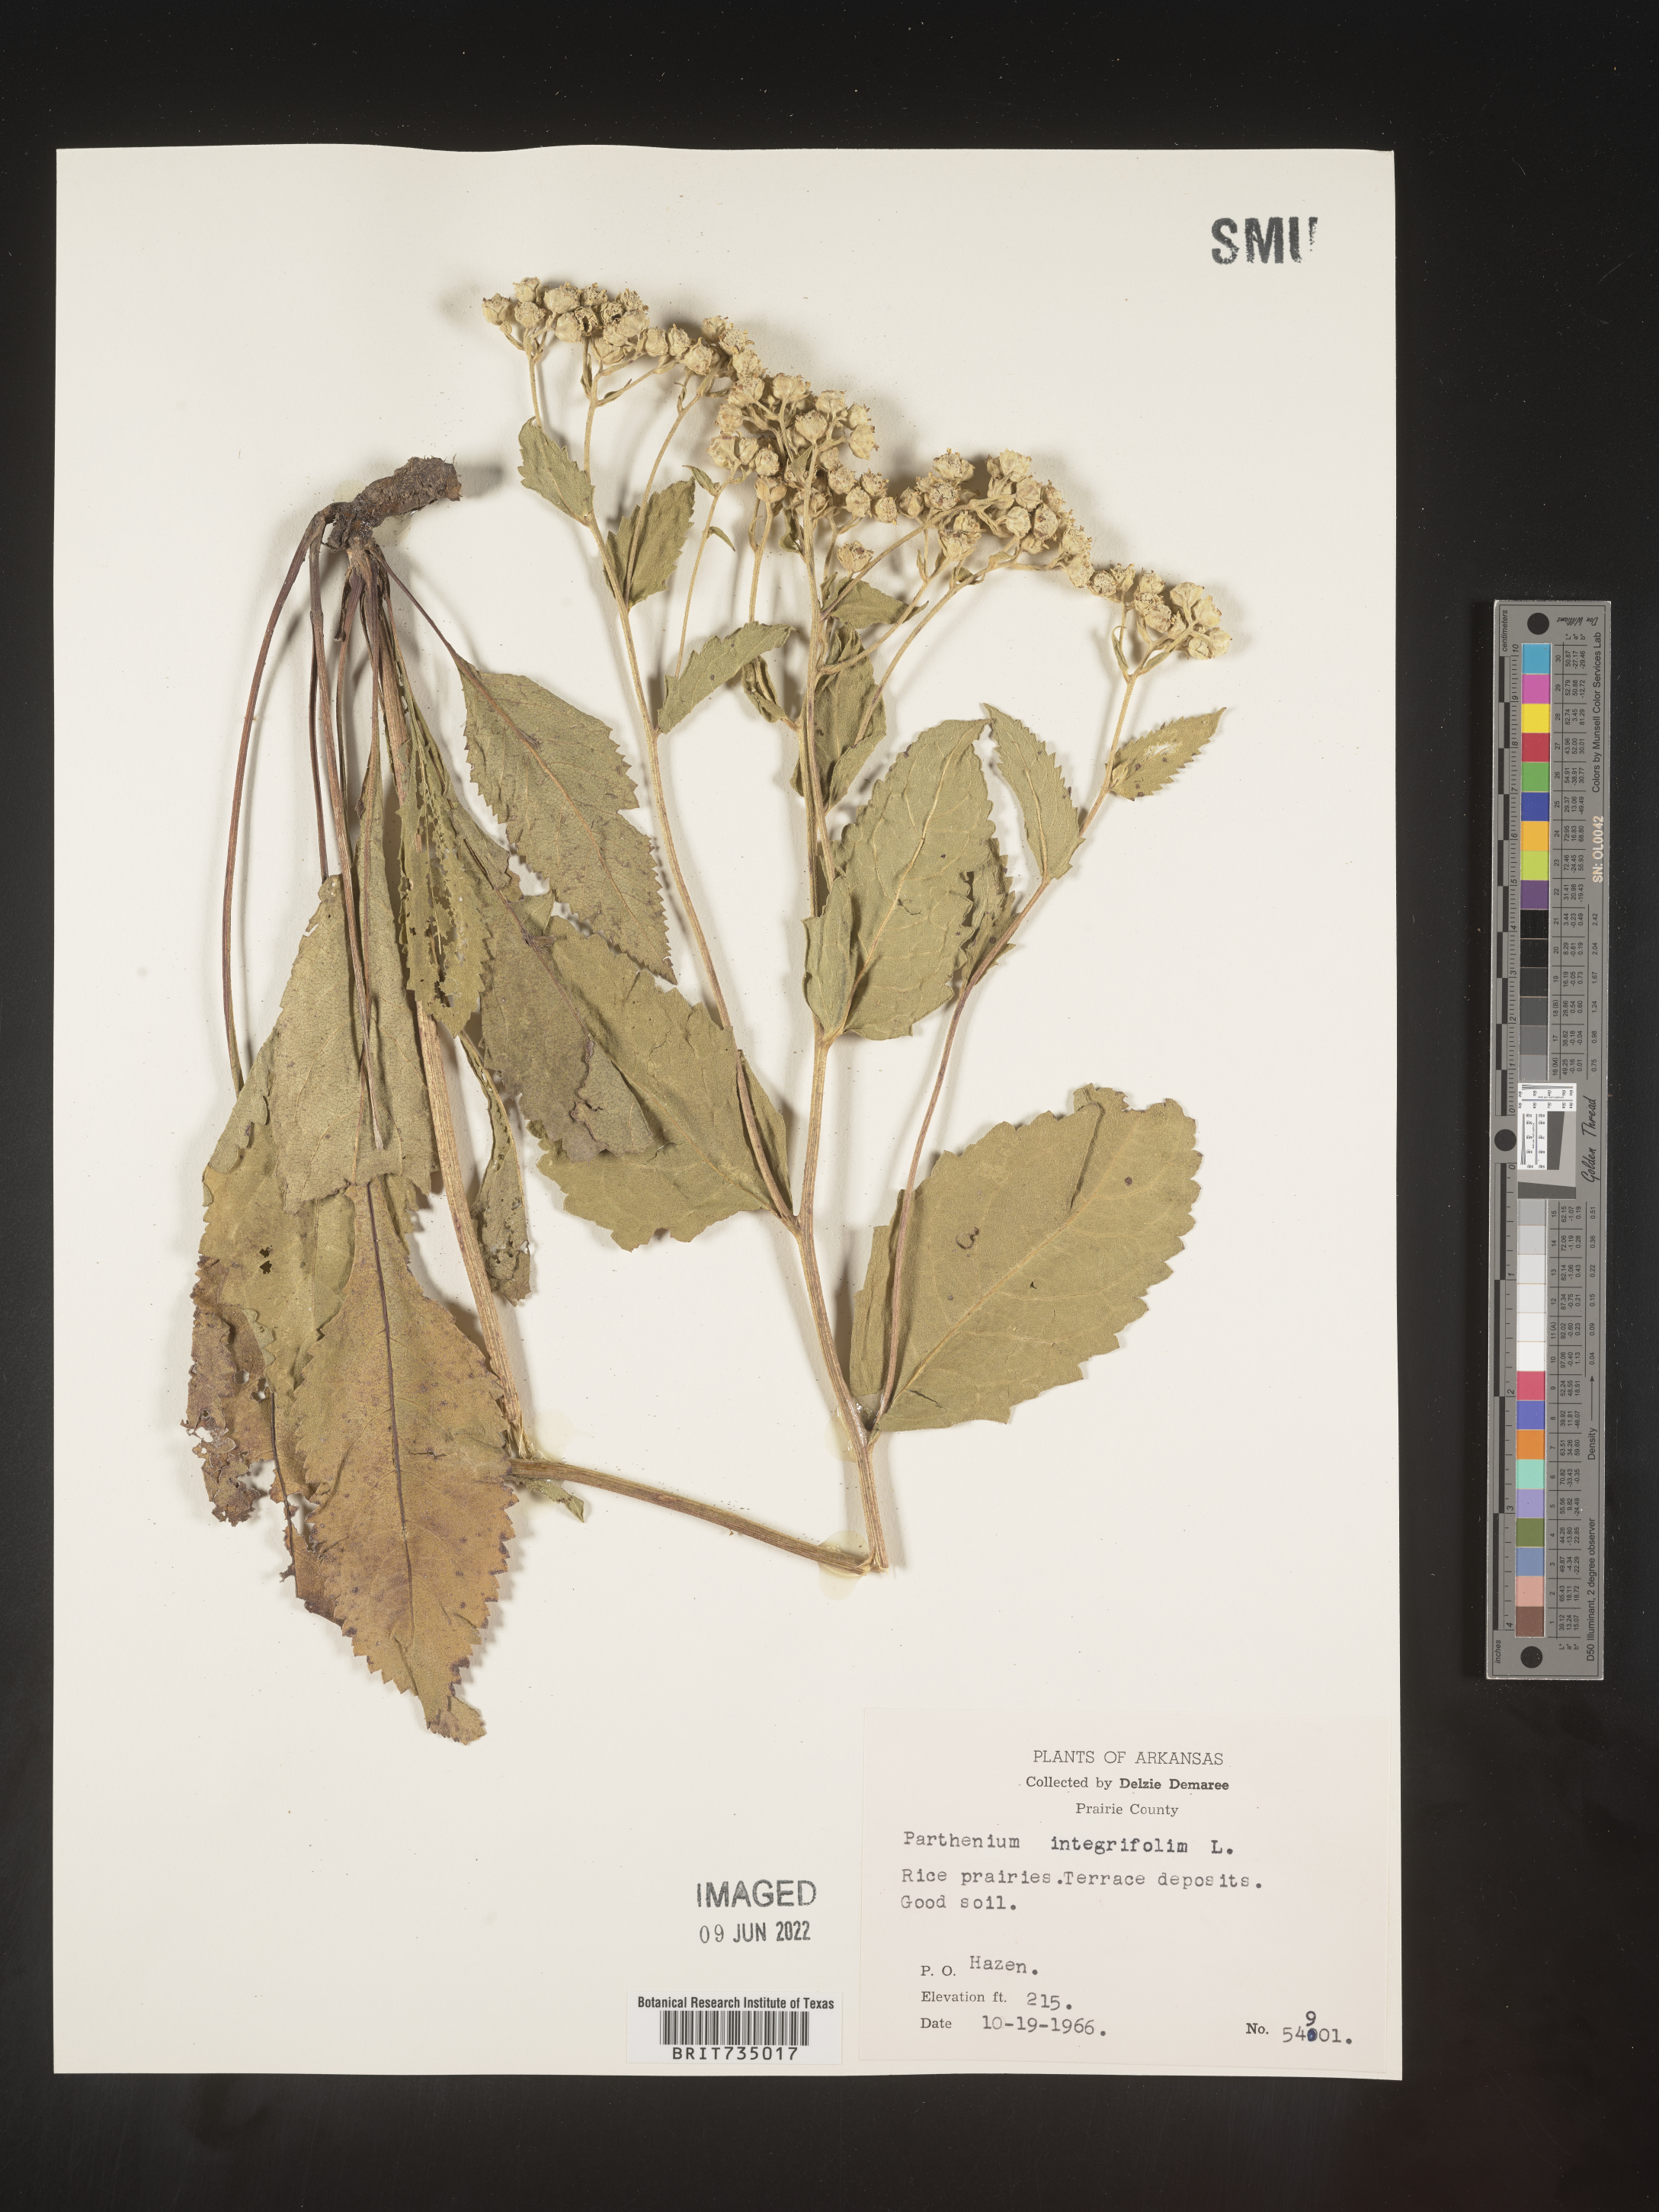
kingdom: Plantae
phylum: Tracheophyta
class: Magnoliopsida
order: Asterales
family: Asteraceae
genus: Parthenium
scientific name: Parthenium hispidum
